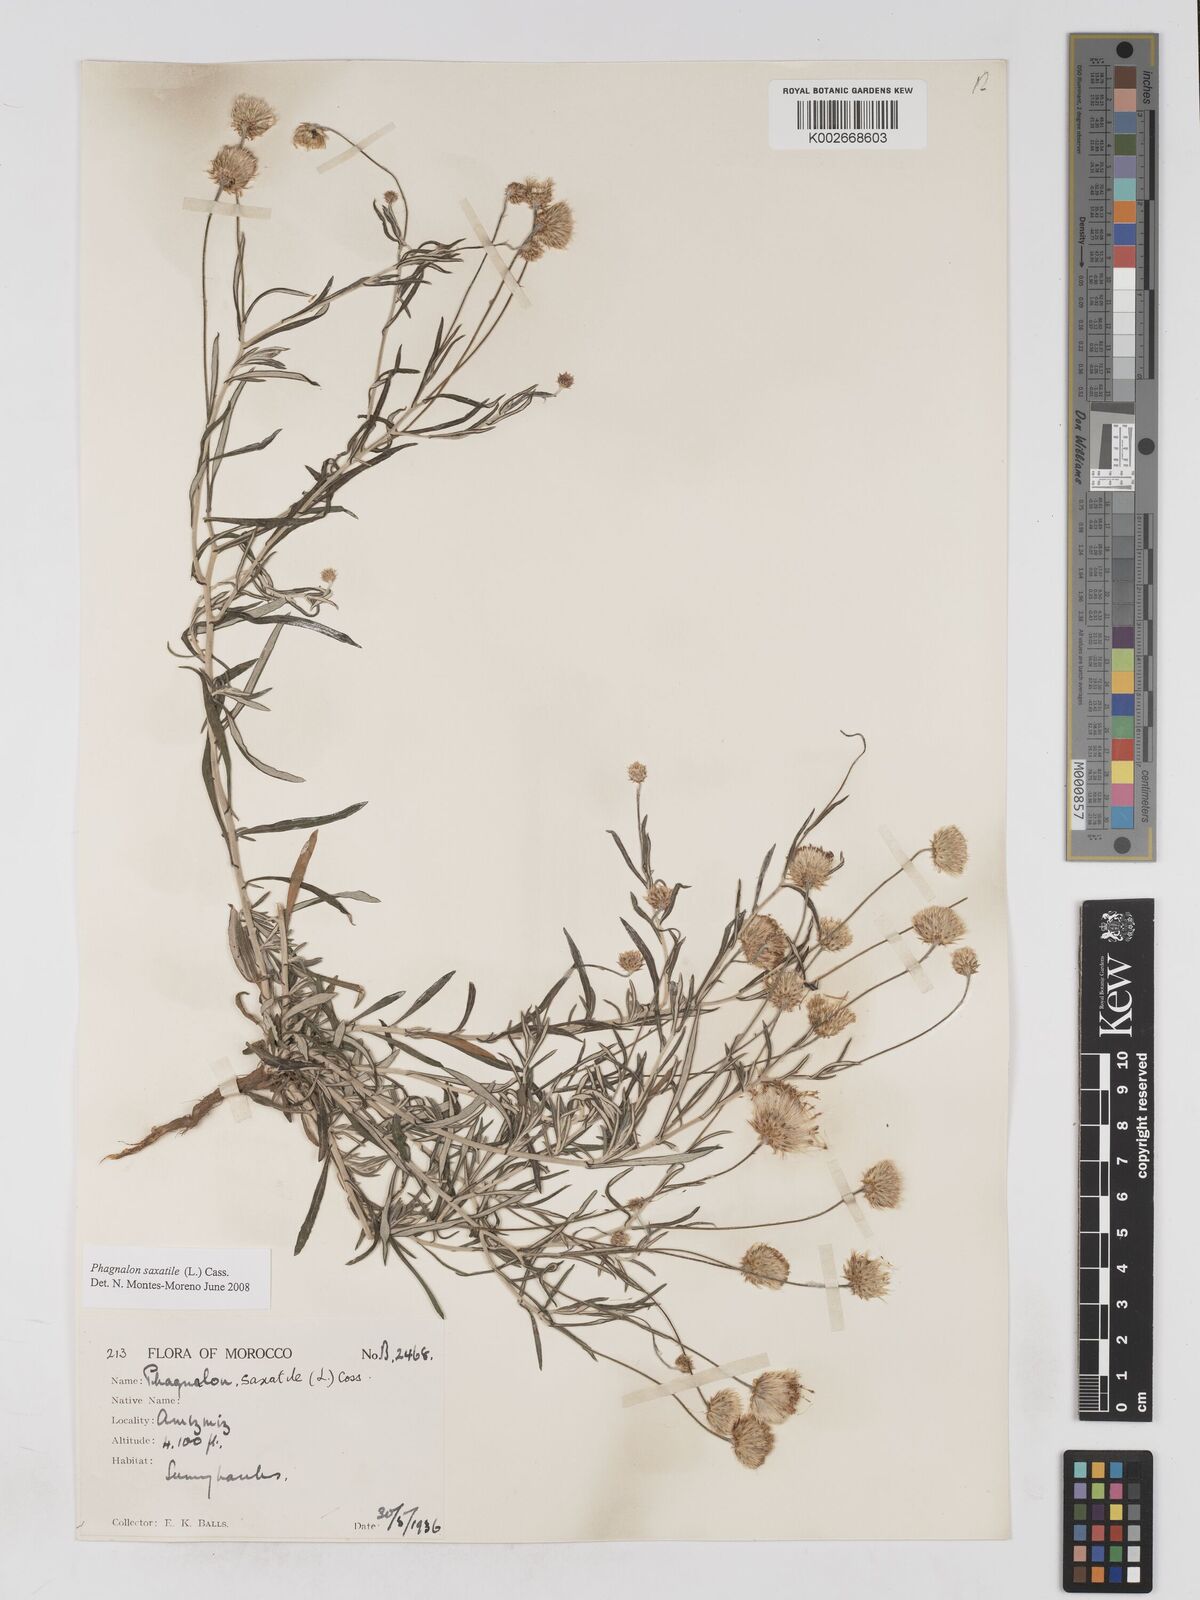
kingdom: Plantae
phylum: Tracheophyta
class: Magnoliopsida
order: Asterales
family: Asteraceae
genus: Phagnalon
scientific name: Phagnalon saxatile
